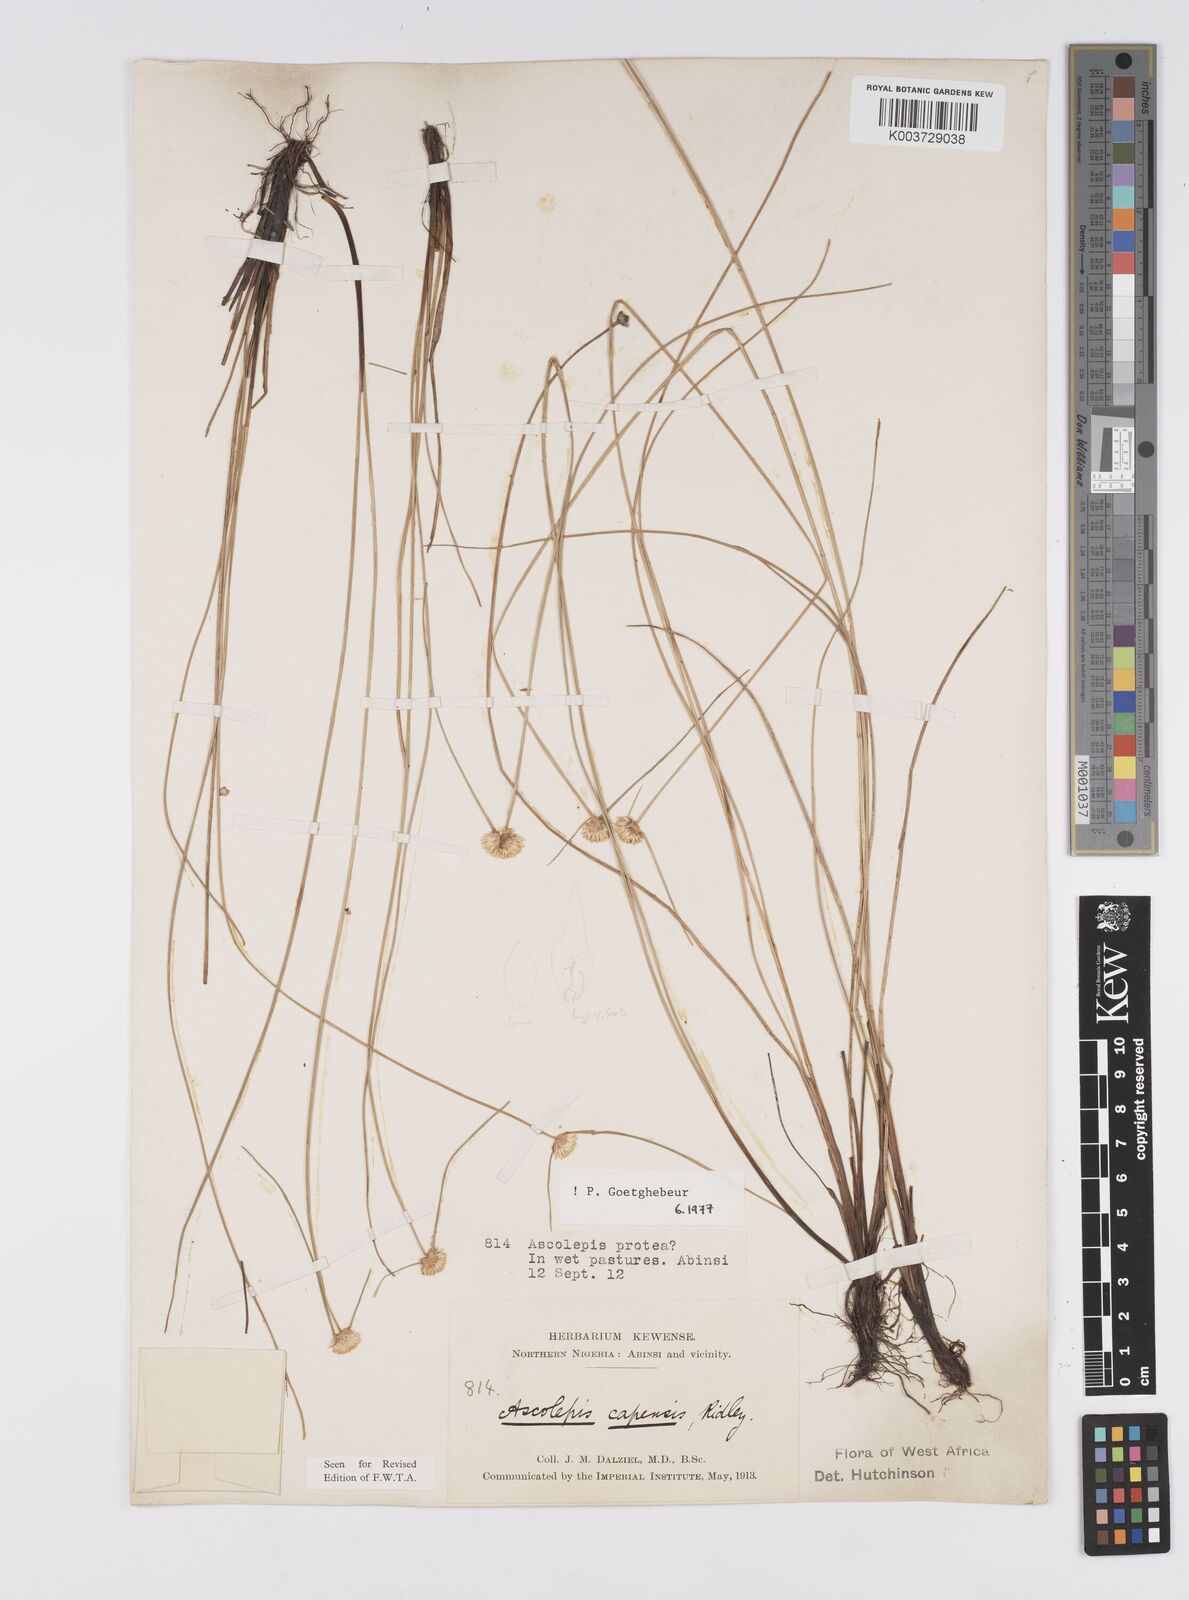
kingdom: Plantae
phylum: Tracheophyta
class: Liliopsida
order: Poales
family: Cyperaceae
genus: Ascolepis
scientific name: Ascolepis
